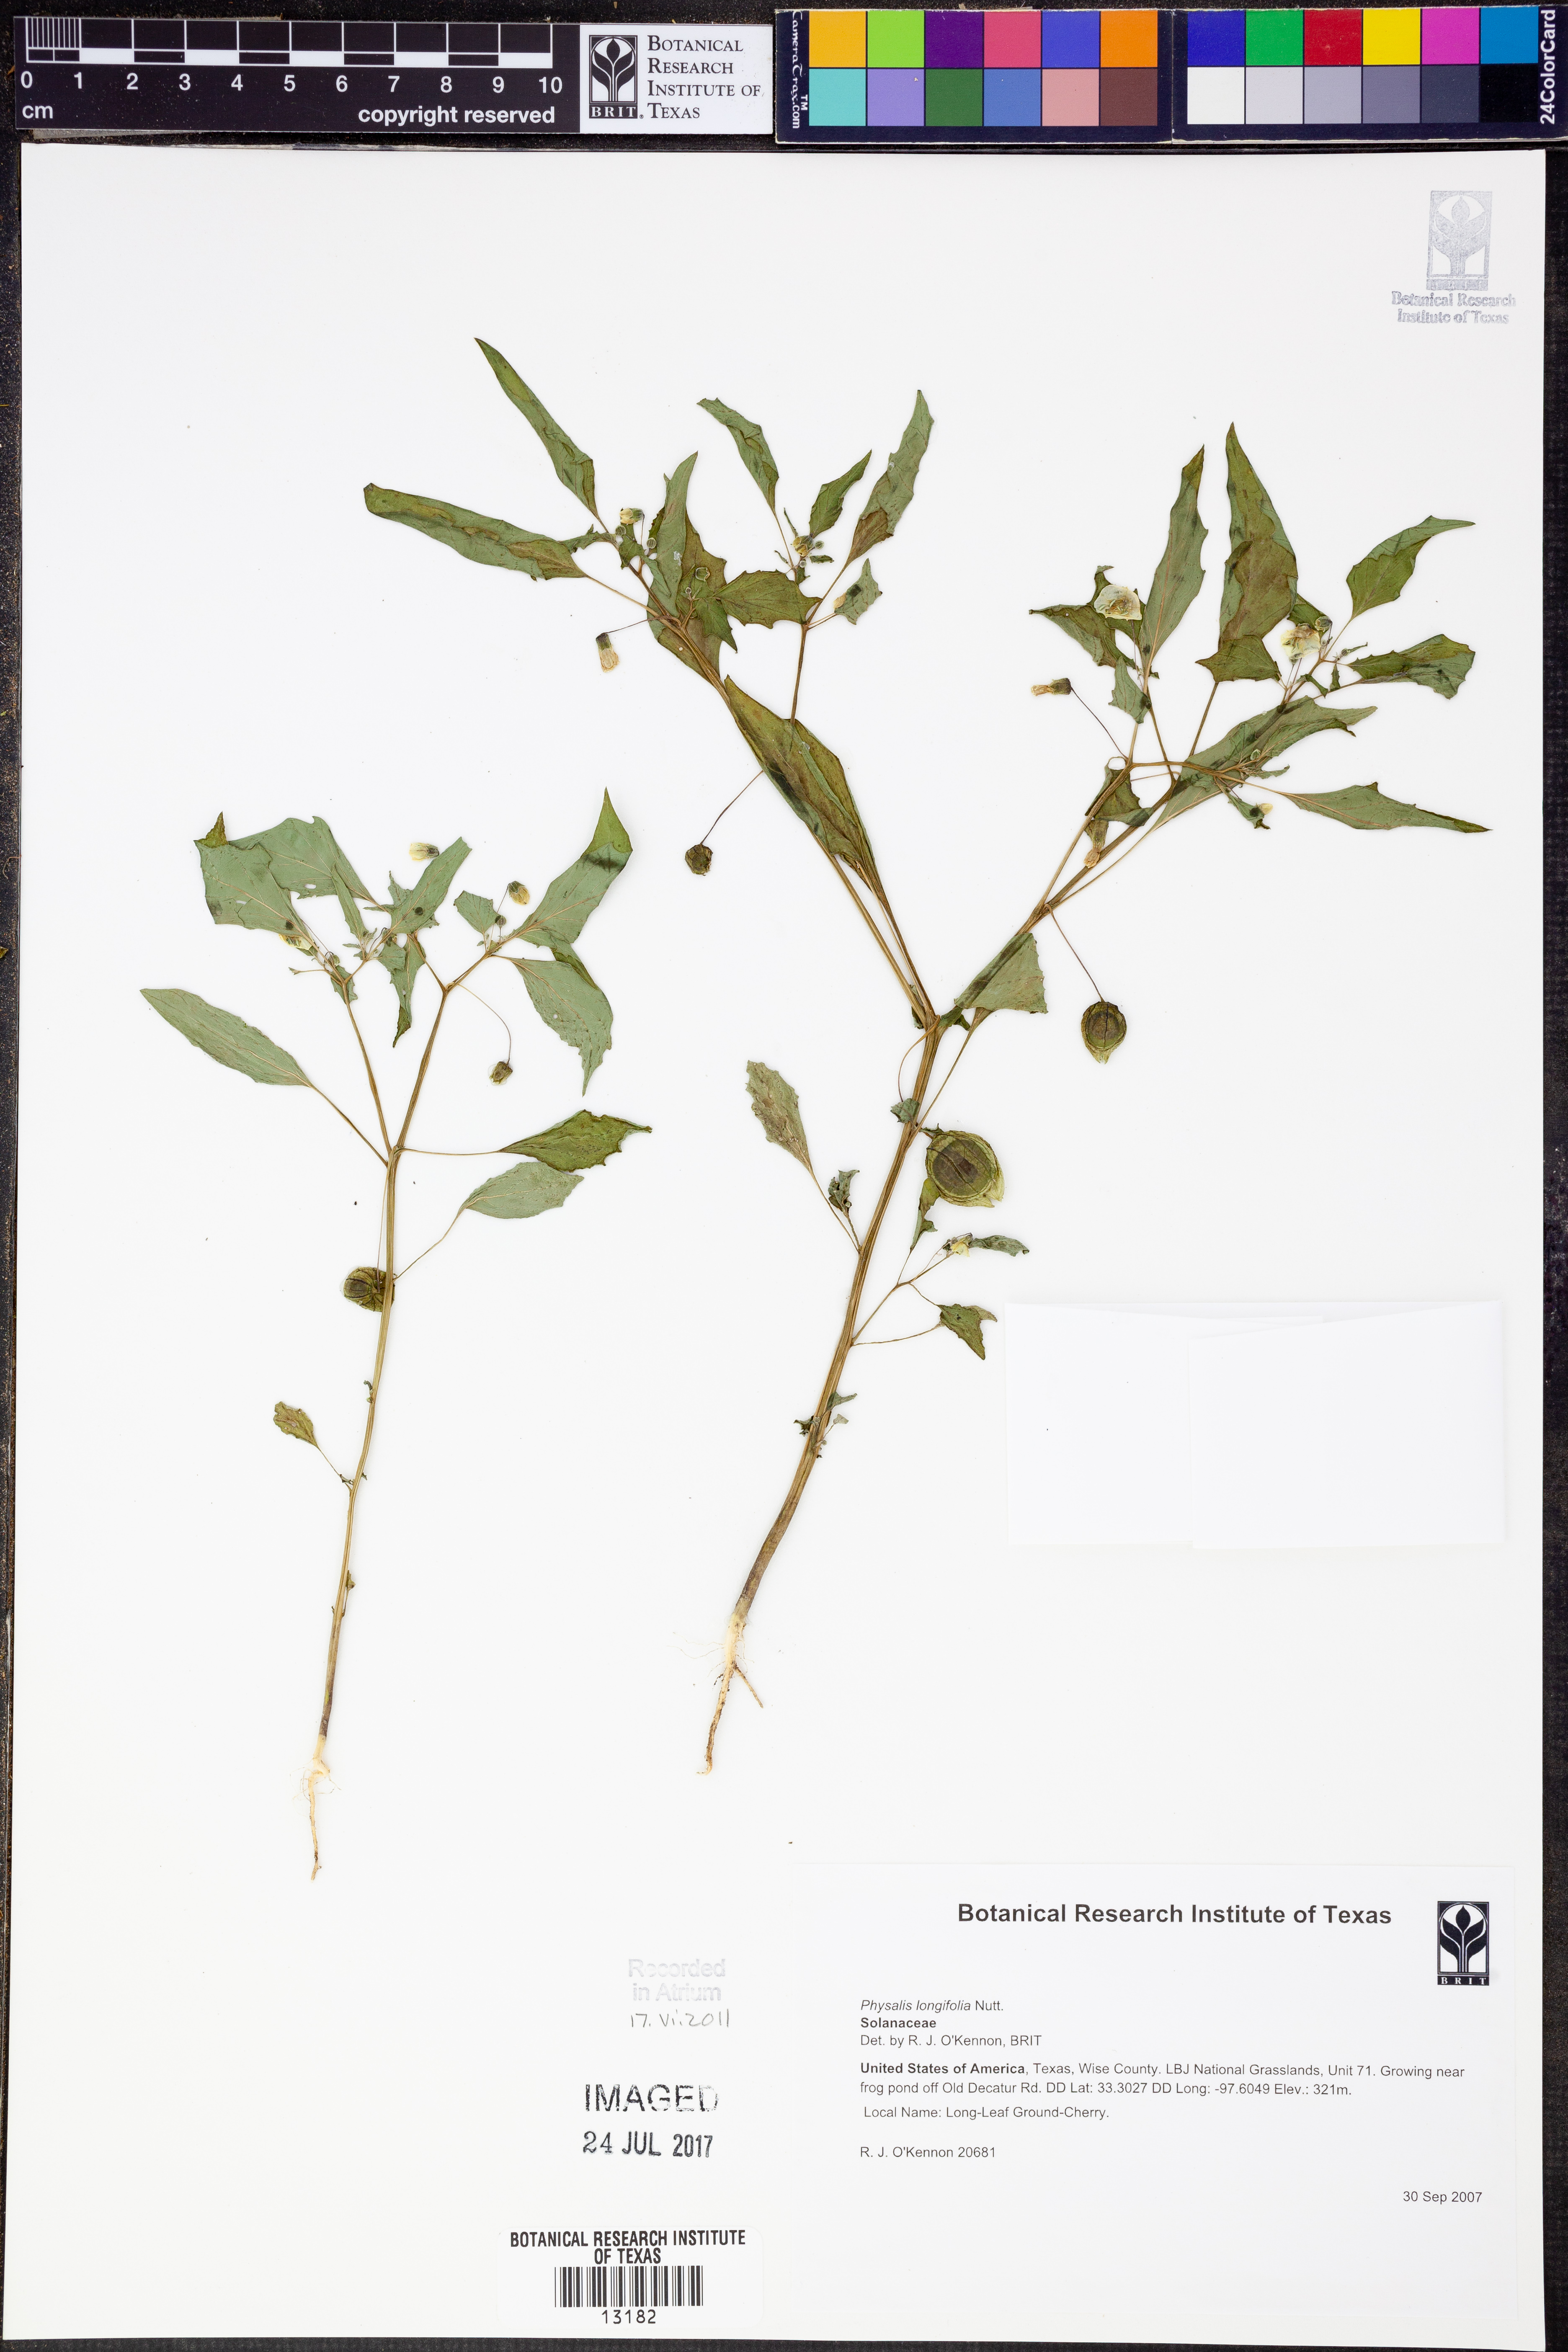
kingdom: Plantae
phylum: Tracheophyta
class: Magnoliopsida
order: Solanales
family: Solanaceae
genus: Physalis
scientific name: Physalis longifolia
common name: Common ground-cherry
